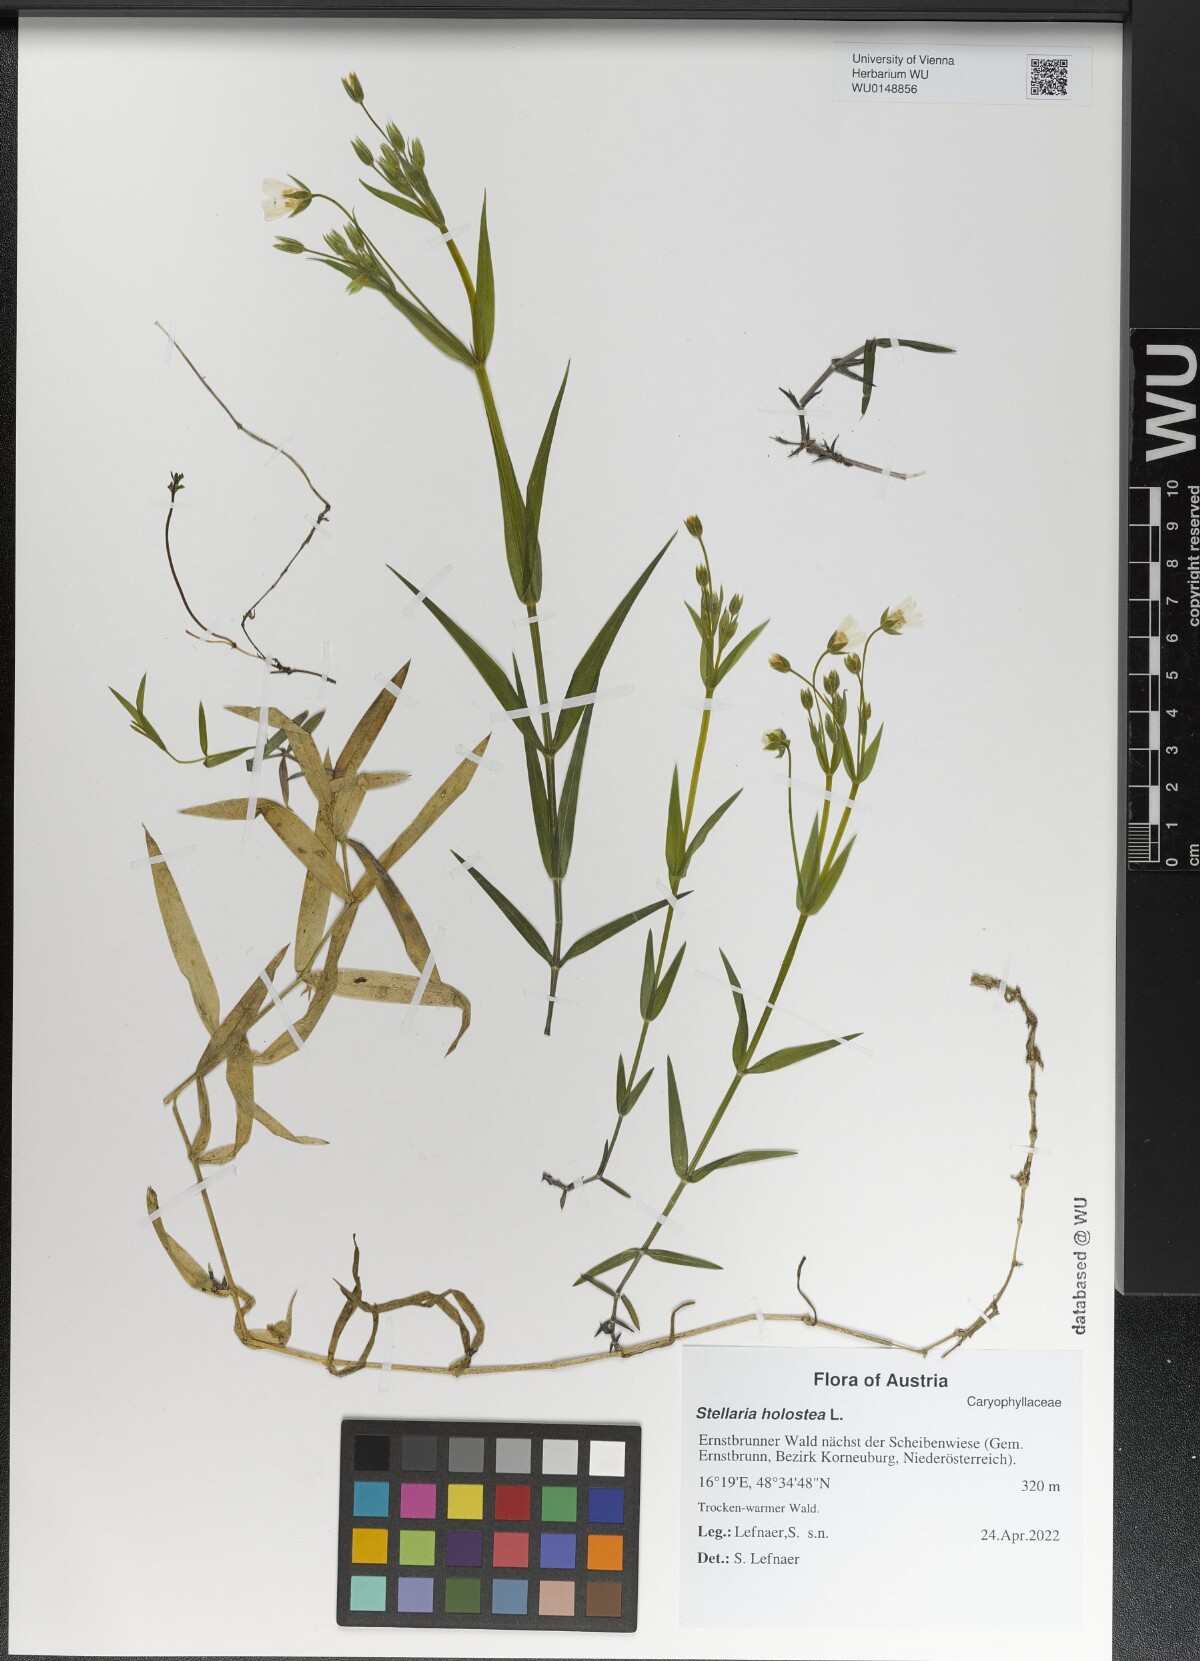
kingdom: Plantae
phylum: Tracheophyta
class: Magnoliopsida
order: Caryophyllales
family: Caryophyllaceae
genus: Rabelera
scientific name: Rabelera holostea
